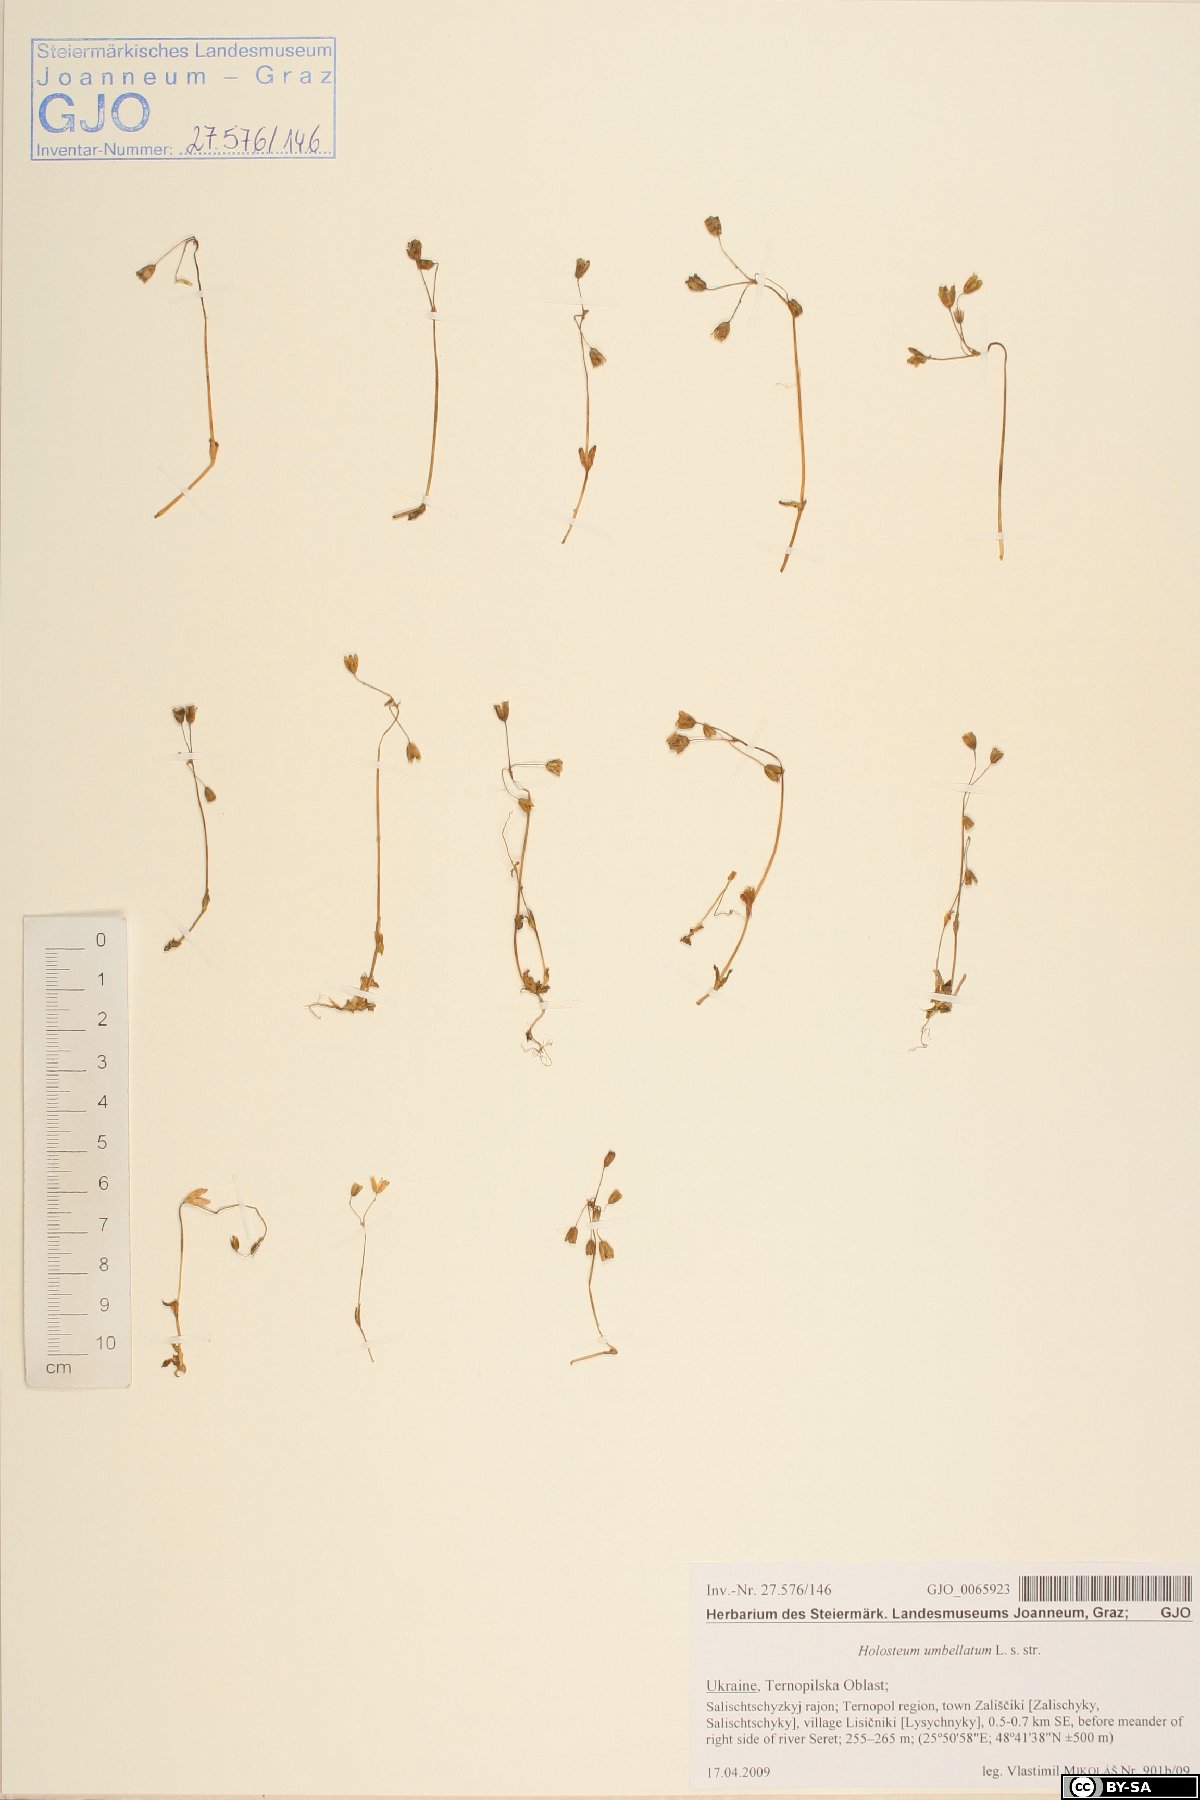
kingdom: Plantae
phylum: Tracheophyta
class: Magnoliopsida
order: Caryophyllales
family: Caryophyllaceae
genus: Holosteum
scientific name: Holosteum umbellatum
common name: Jagged chickweed
